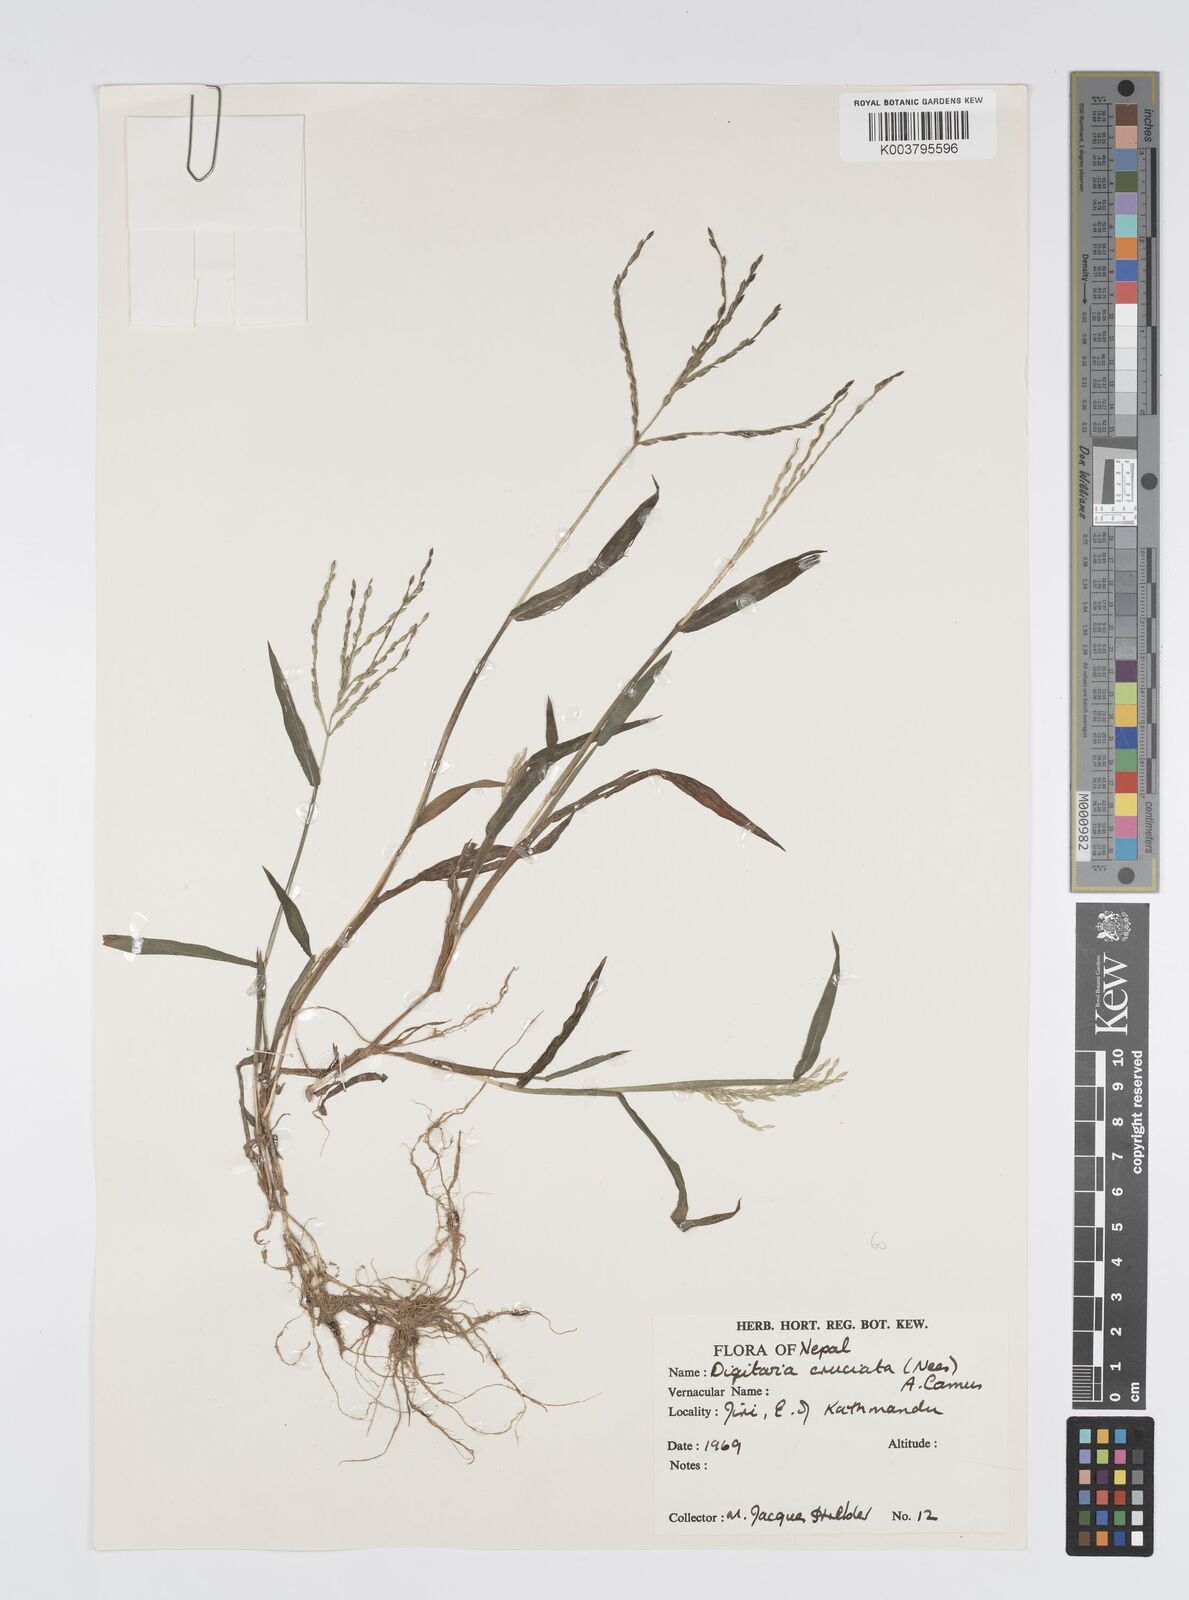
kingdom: Plantae
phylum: Tracheophyta
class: Liliopsida
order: Poales
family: Poaceae
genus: Digitaria
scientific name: Digitaria sanguinalis
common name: Hairy crabgrass
